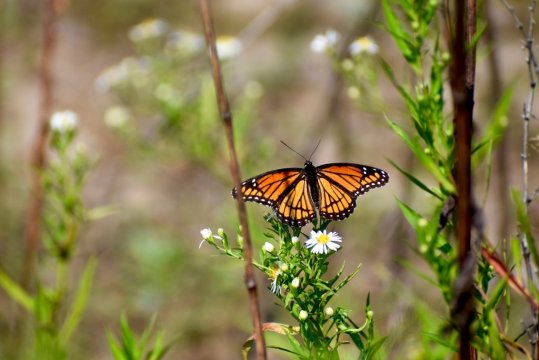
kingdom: Animalia
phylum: Arthropoda
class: Insecta
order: Lepidoptera
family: Nymphalidae
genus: Limenitis
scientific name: Limenitis archippus
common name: Viceroy
